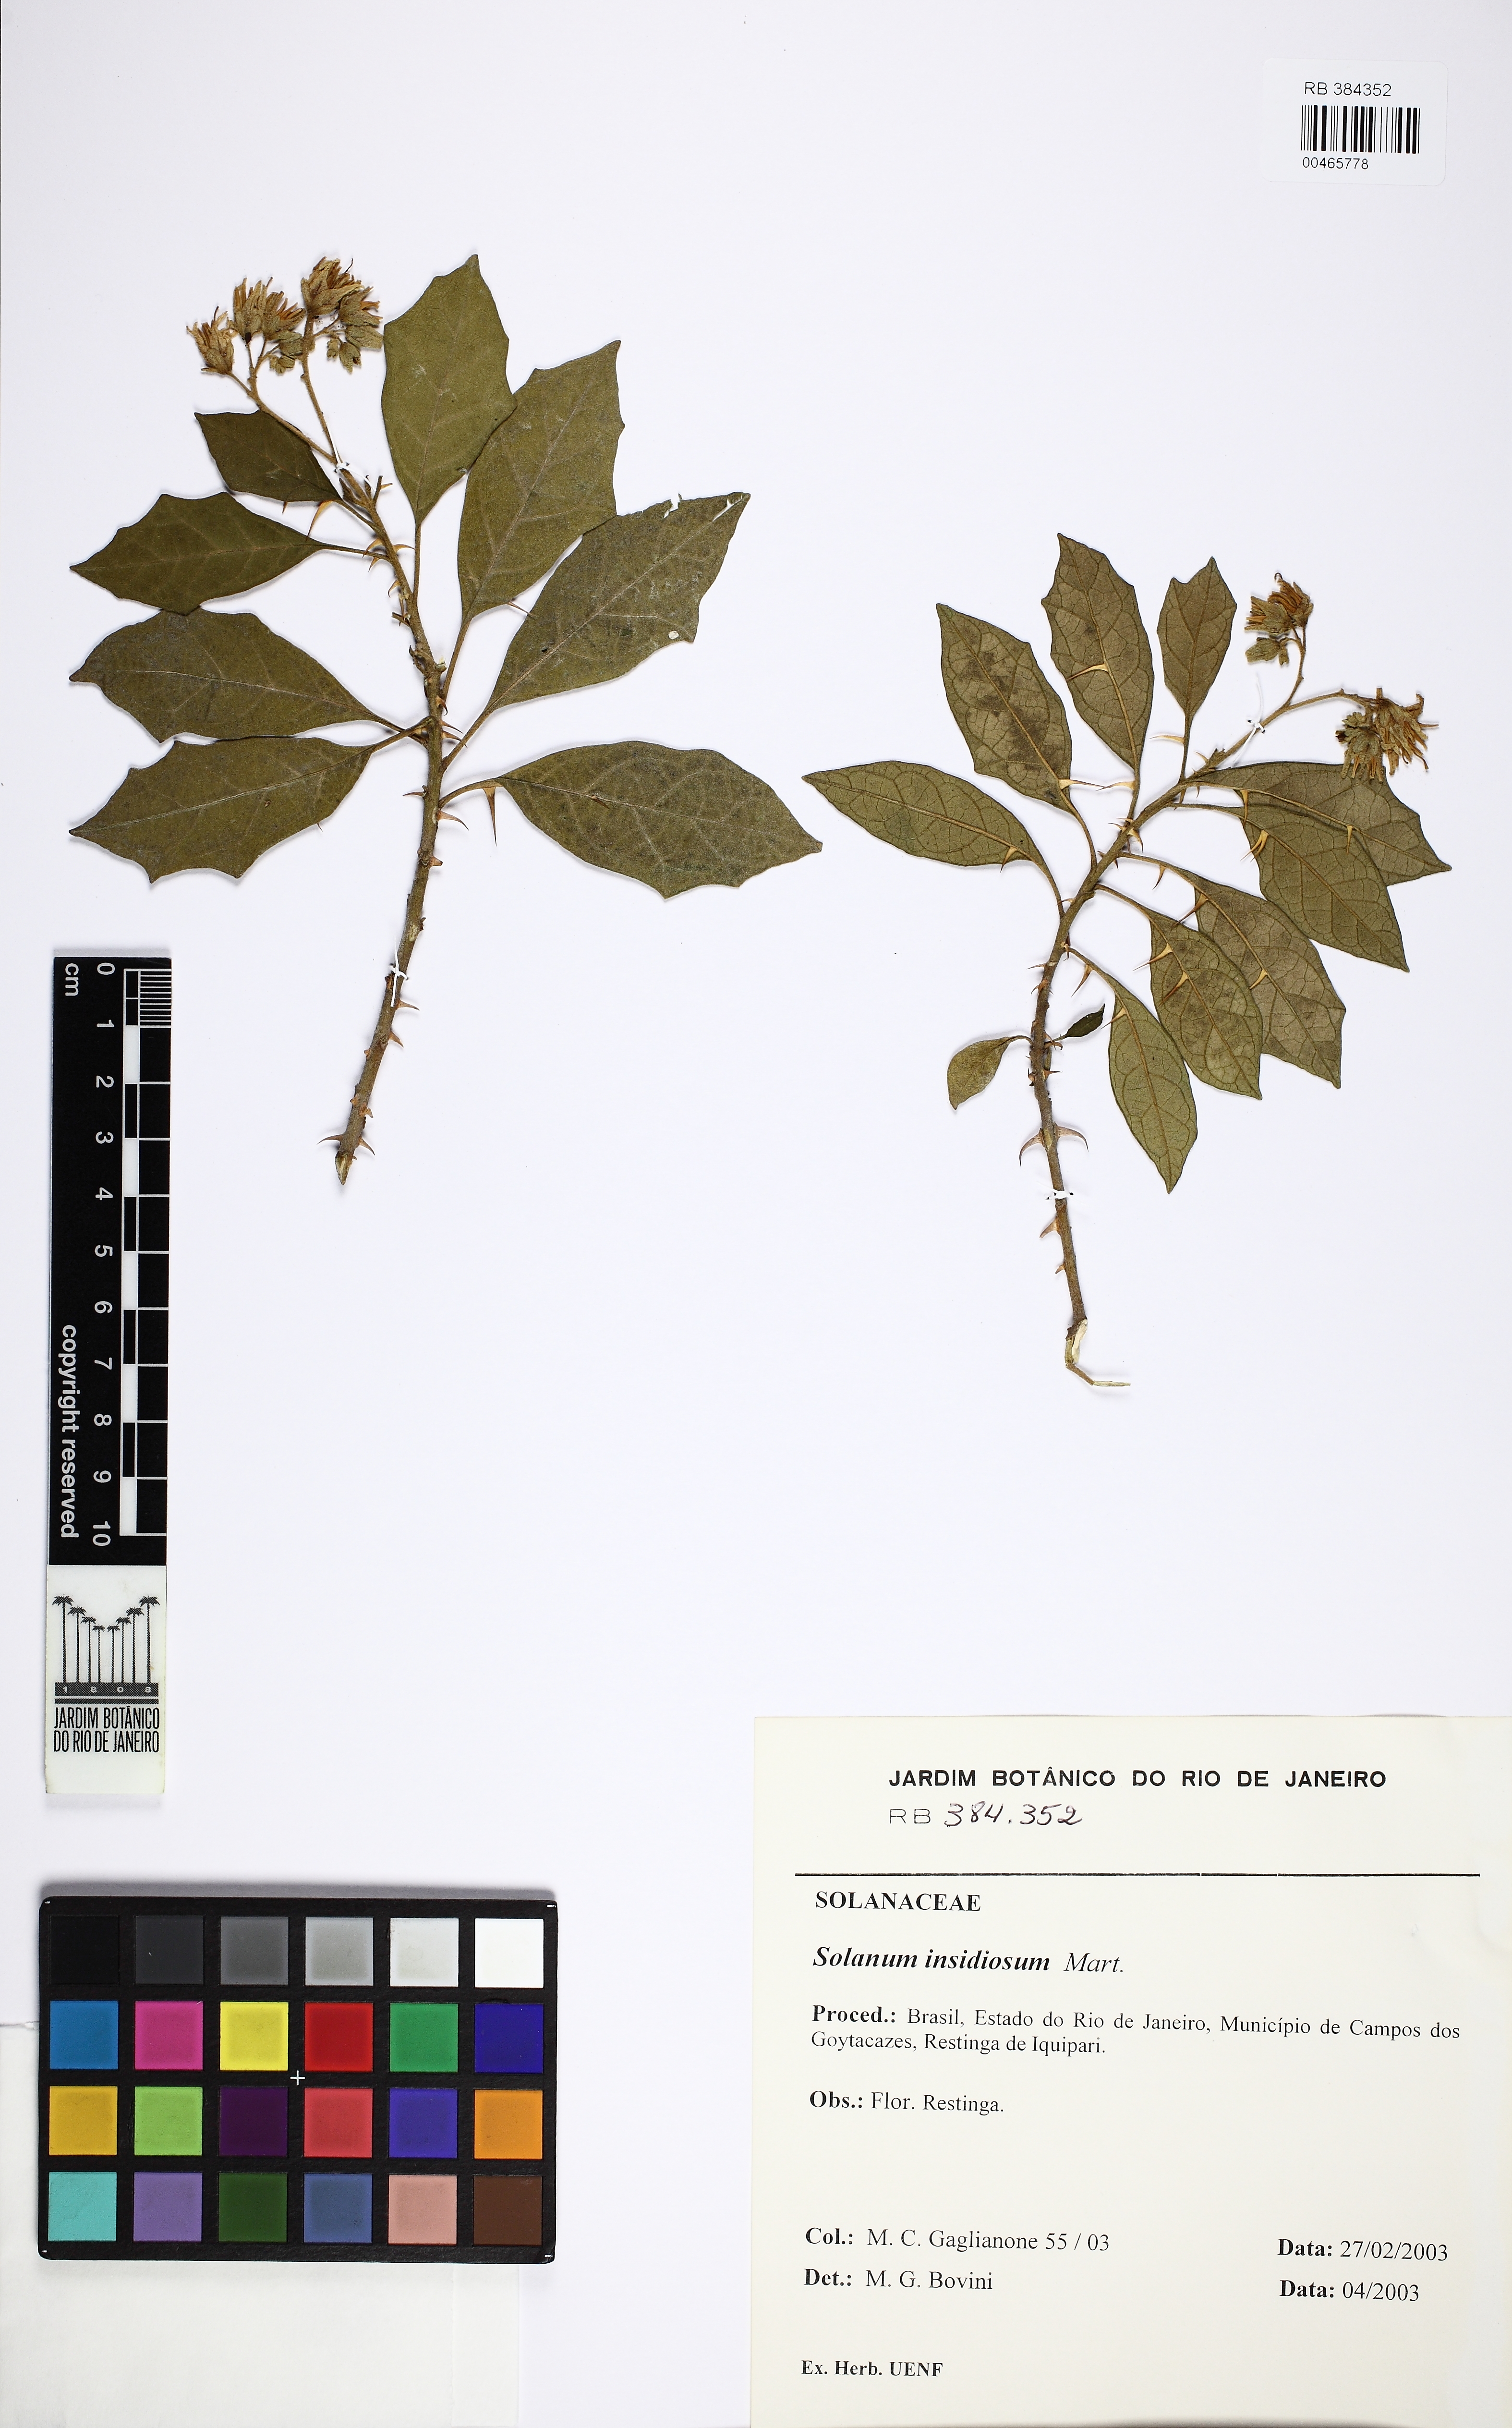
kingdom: Plantae
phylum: Tracheophyta
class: Magnoliopsida
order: Solanales
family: Solanaceae
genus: Solanum
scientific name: Solanum insidiosum
